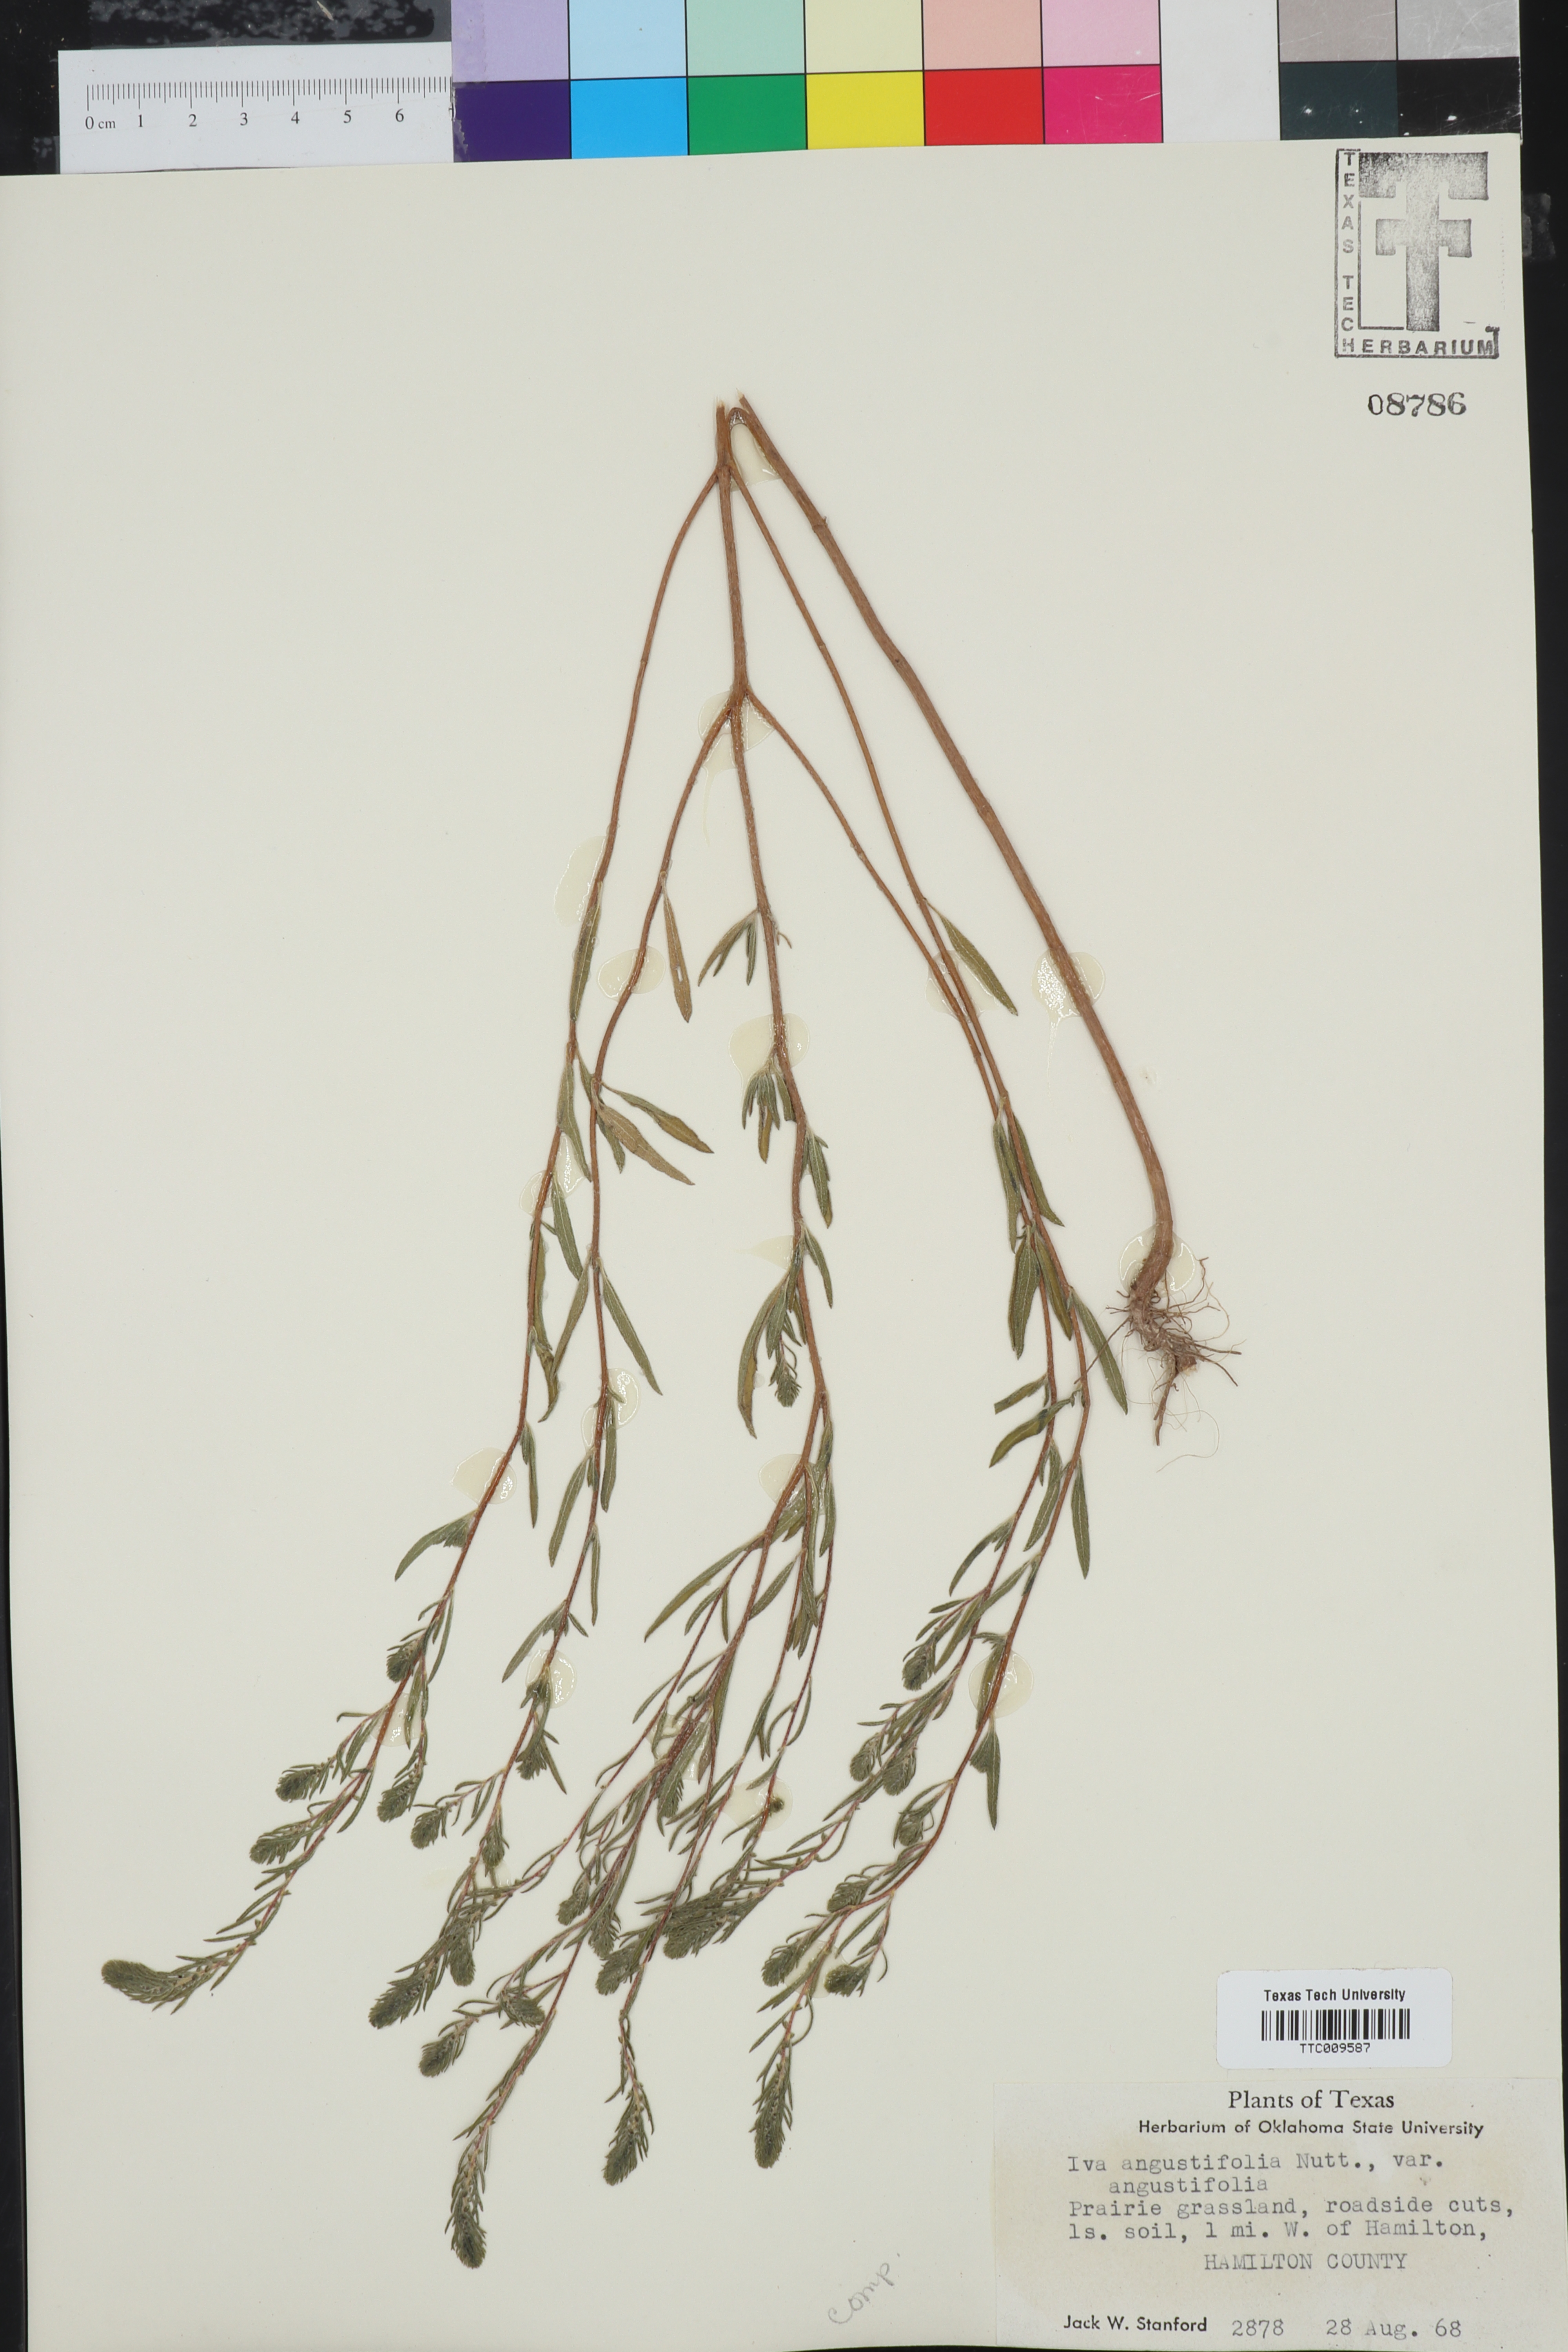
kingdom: Plantae
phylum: Tracheophyta
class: Magnoliopsida
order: Asterales
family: Asteraceae
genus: Iva
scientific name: Iva asperifolia
